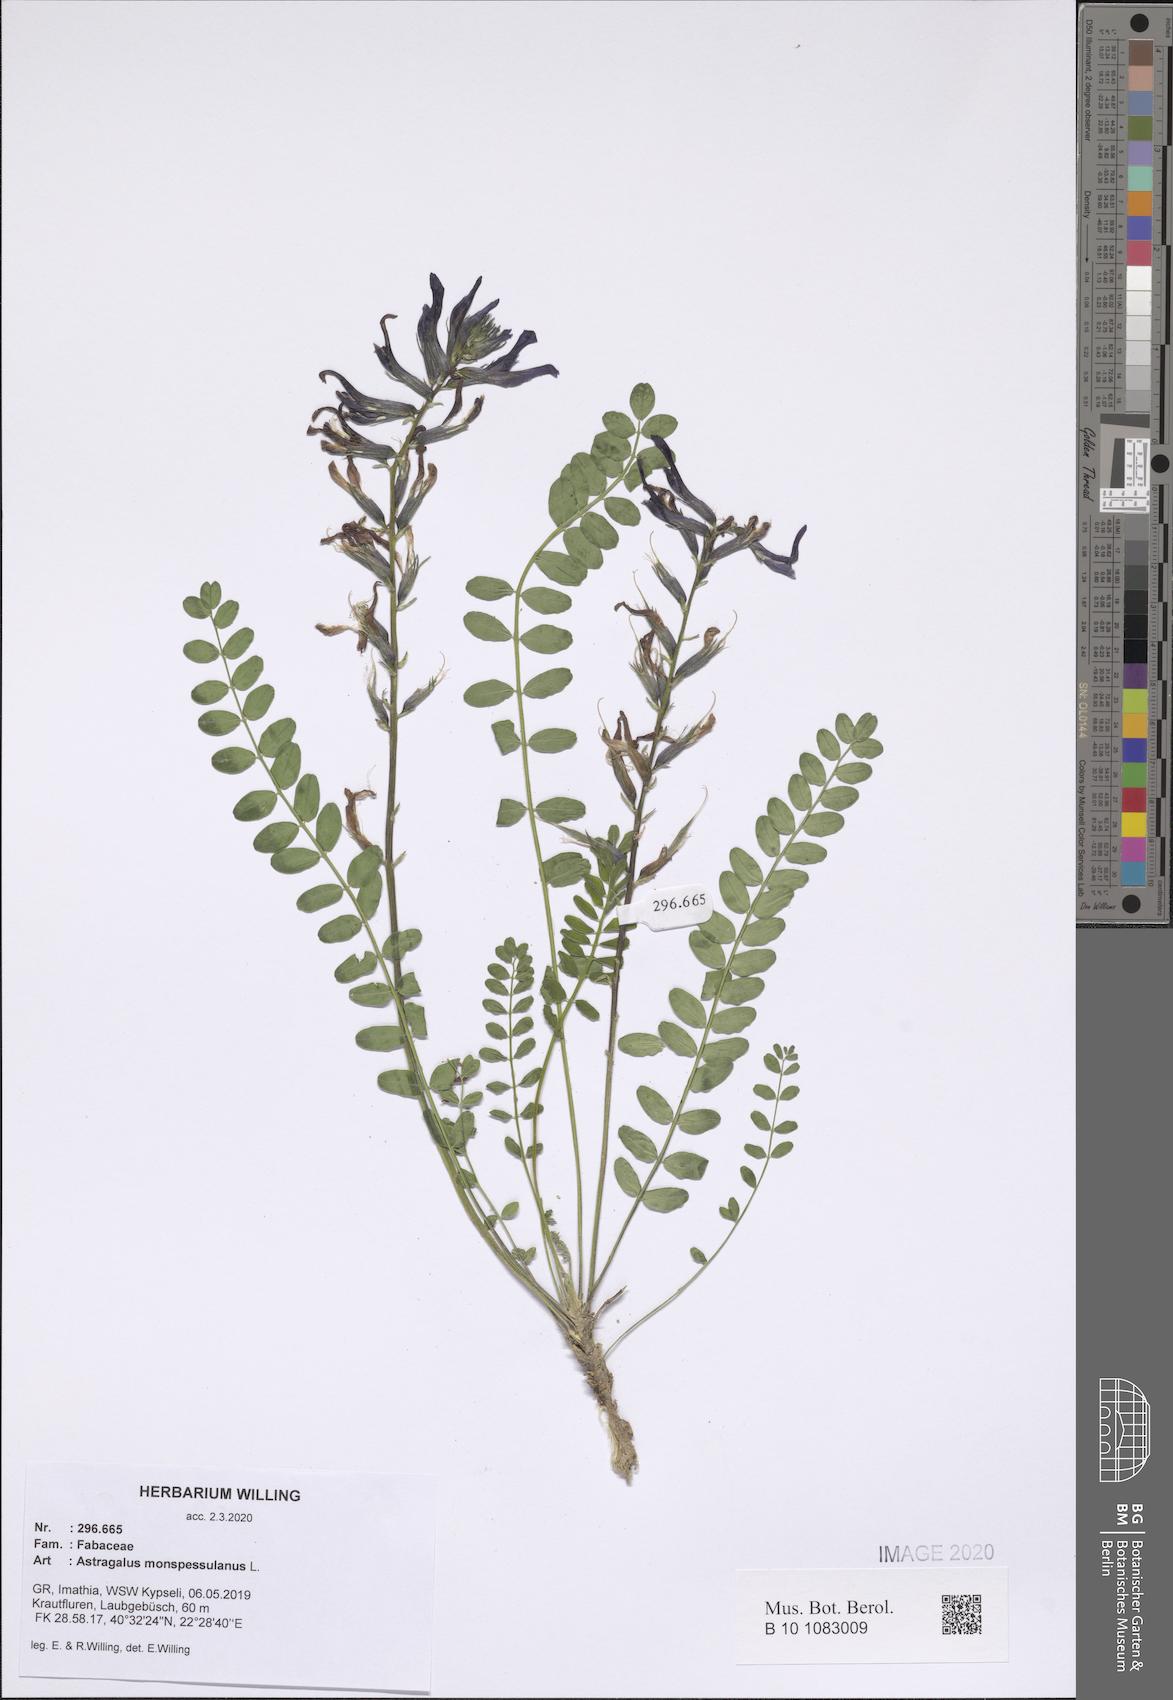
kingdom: Plantae
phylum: Tracheophyta
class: Magnoliopsida
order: Fabales
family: Fabaceae
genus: Astragalus
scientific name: Astragalus monspessulanus
